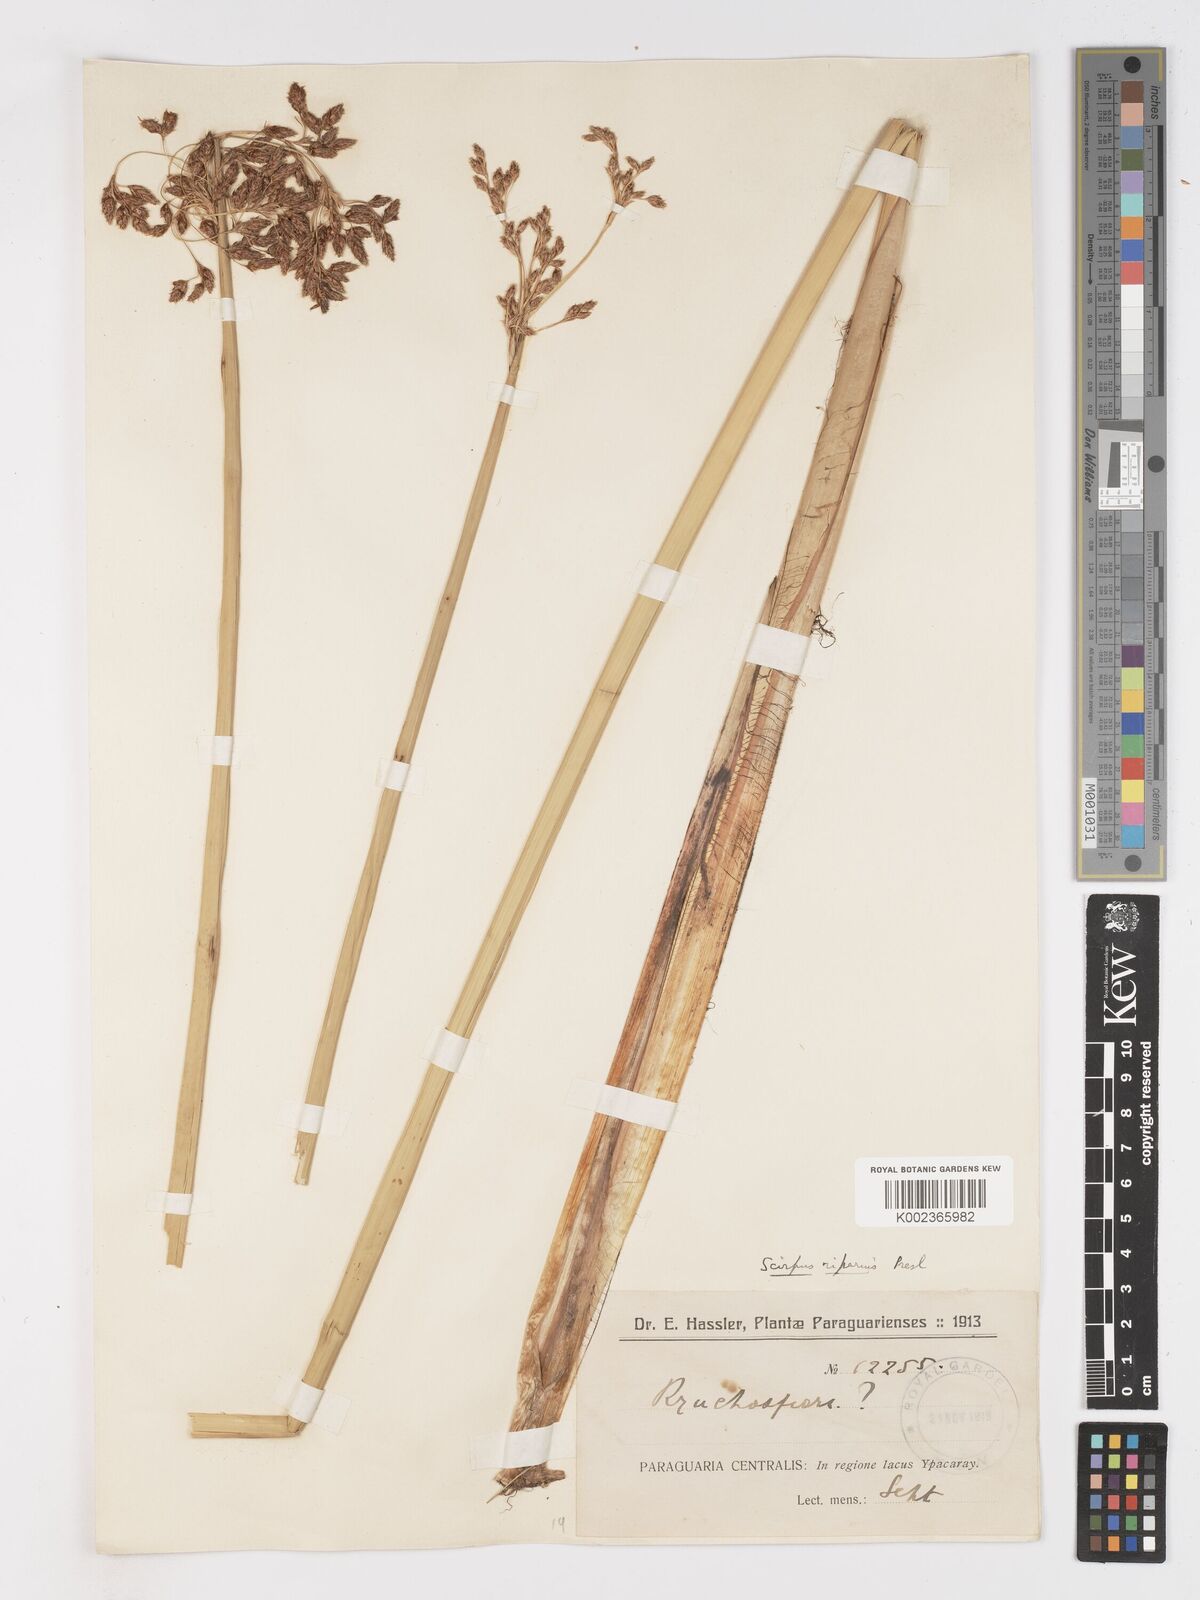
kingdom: Plantae
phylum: Tracheophyta
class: Liliopsida
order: Poales
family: Cyperaceae
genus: Schoenoplectus
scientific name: Schoenoplectus californicus
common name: California bulrush
